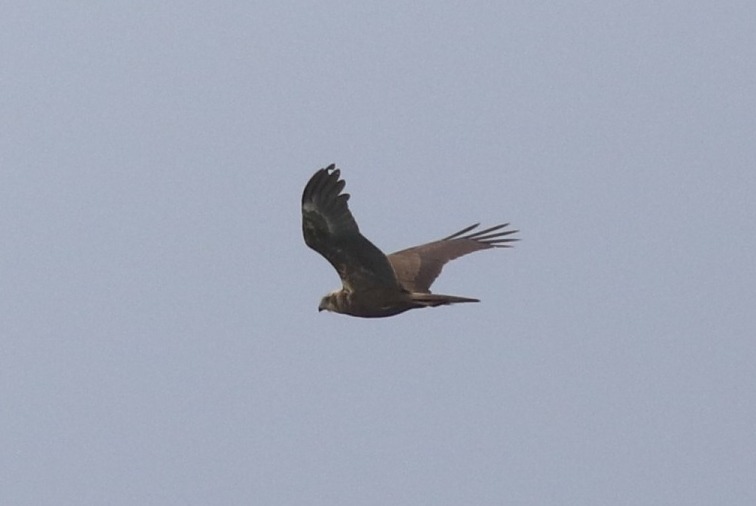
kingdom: Animalia
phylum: Chordata
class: Aves
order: Accipitriformes
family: Accipitridae
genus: Circus
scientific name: Circus aeruginosus
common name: Rørhøg
